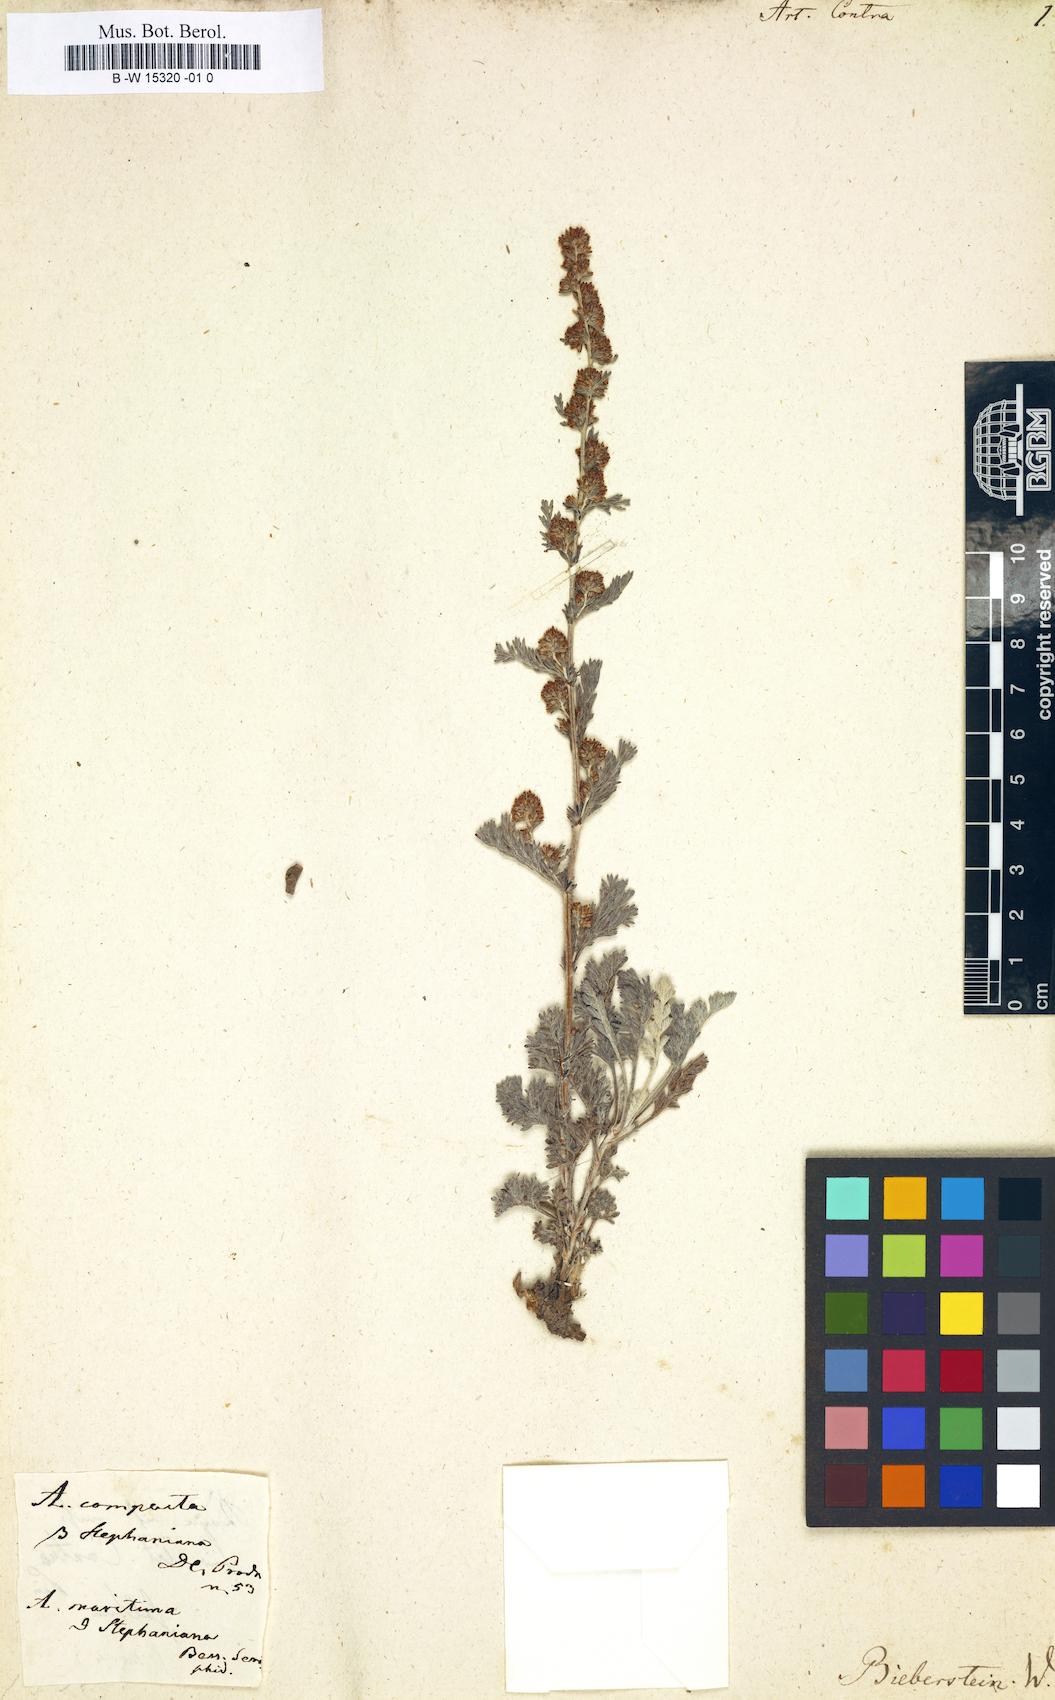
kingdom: Plantae
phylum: Tracheophyta
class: Magnoliopsida
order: Asterales
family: Asteraceae
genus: Artemisia
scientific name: Artemisia maritima
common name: Wormseed
